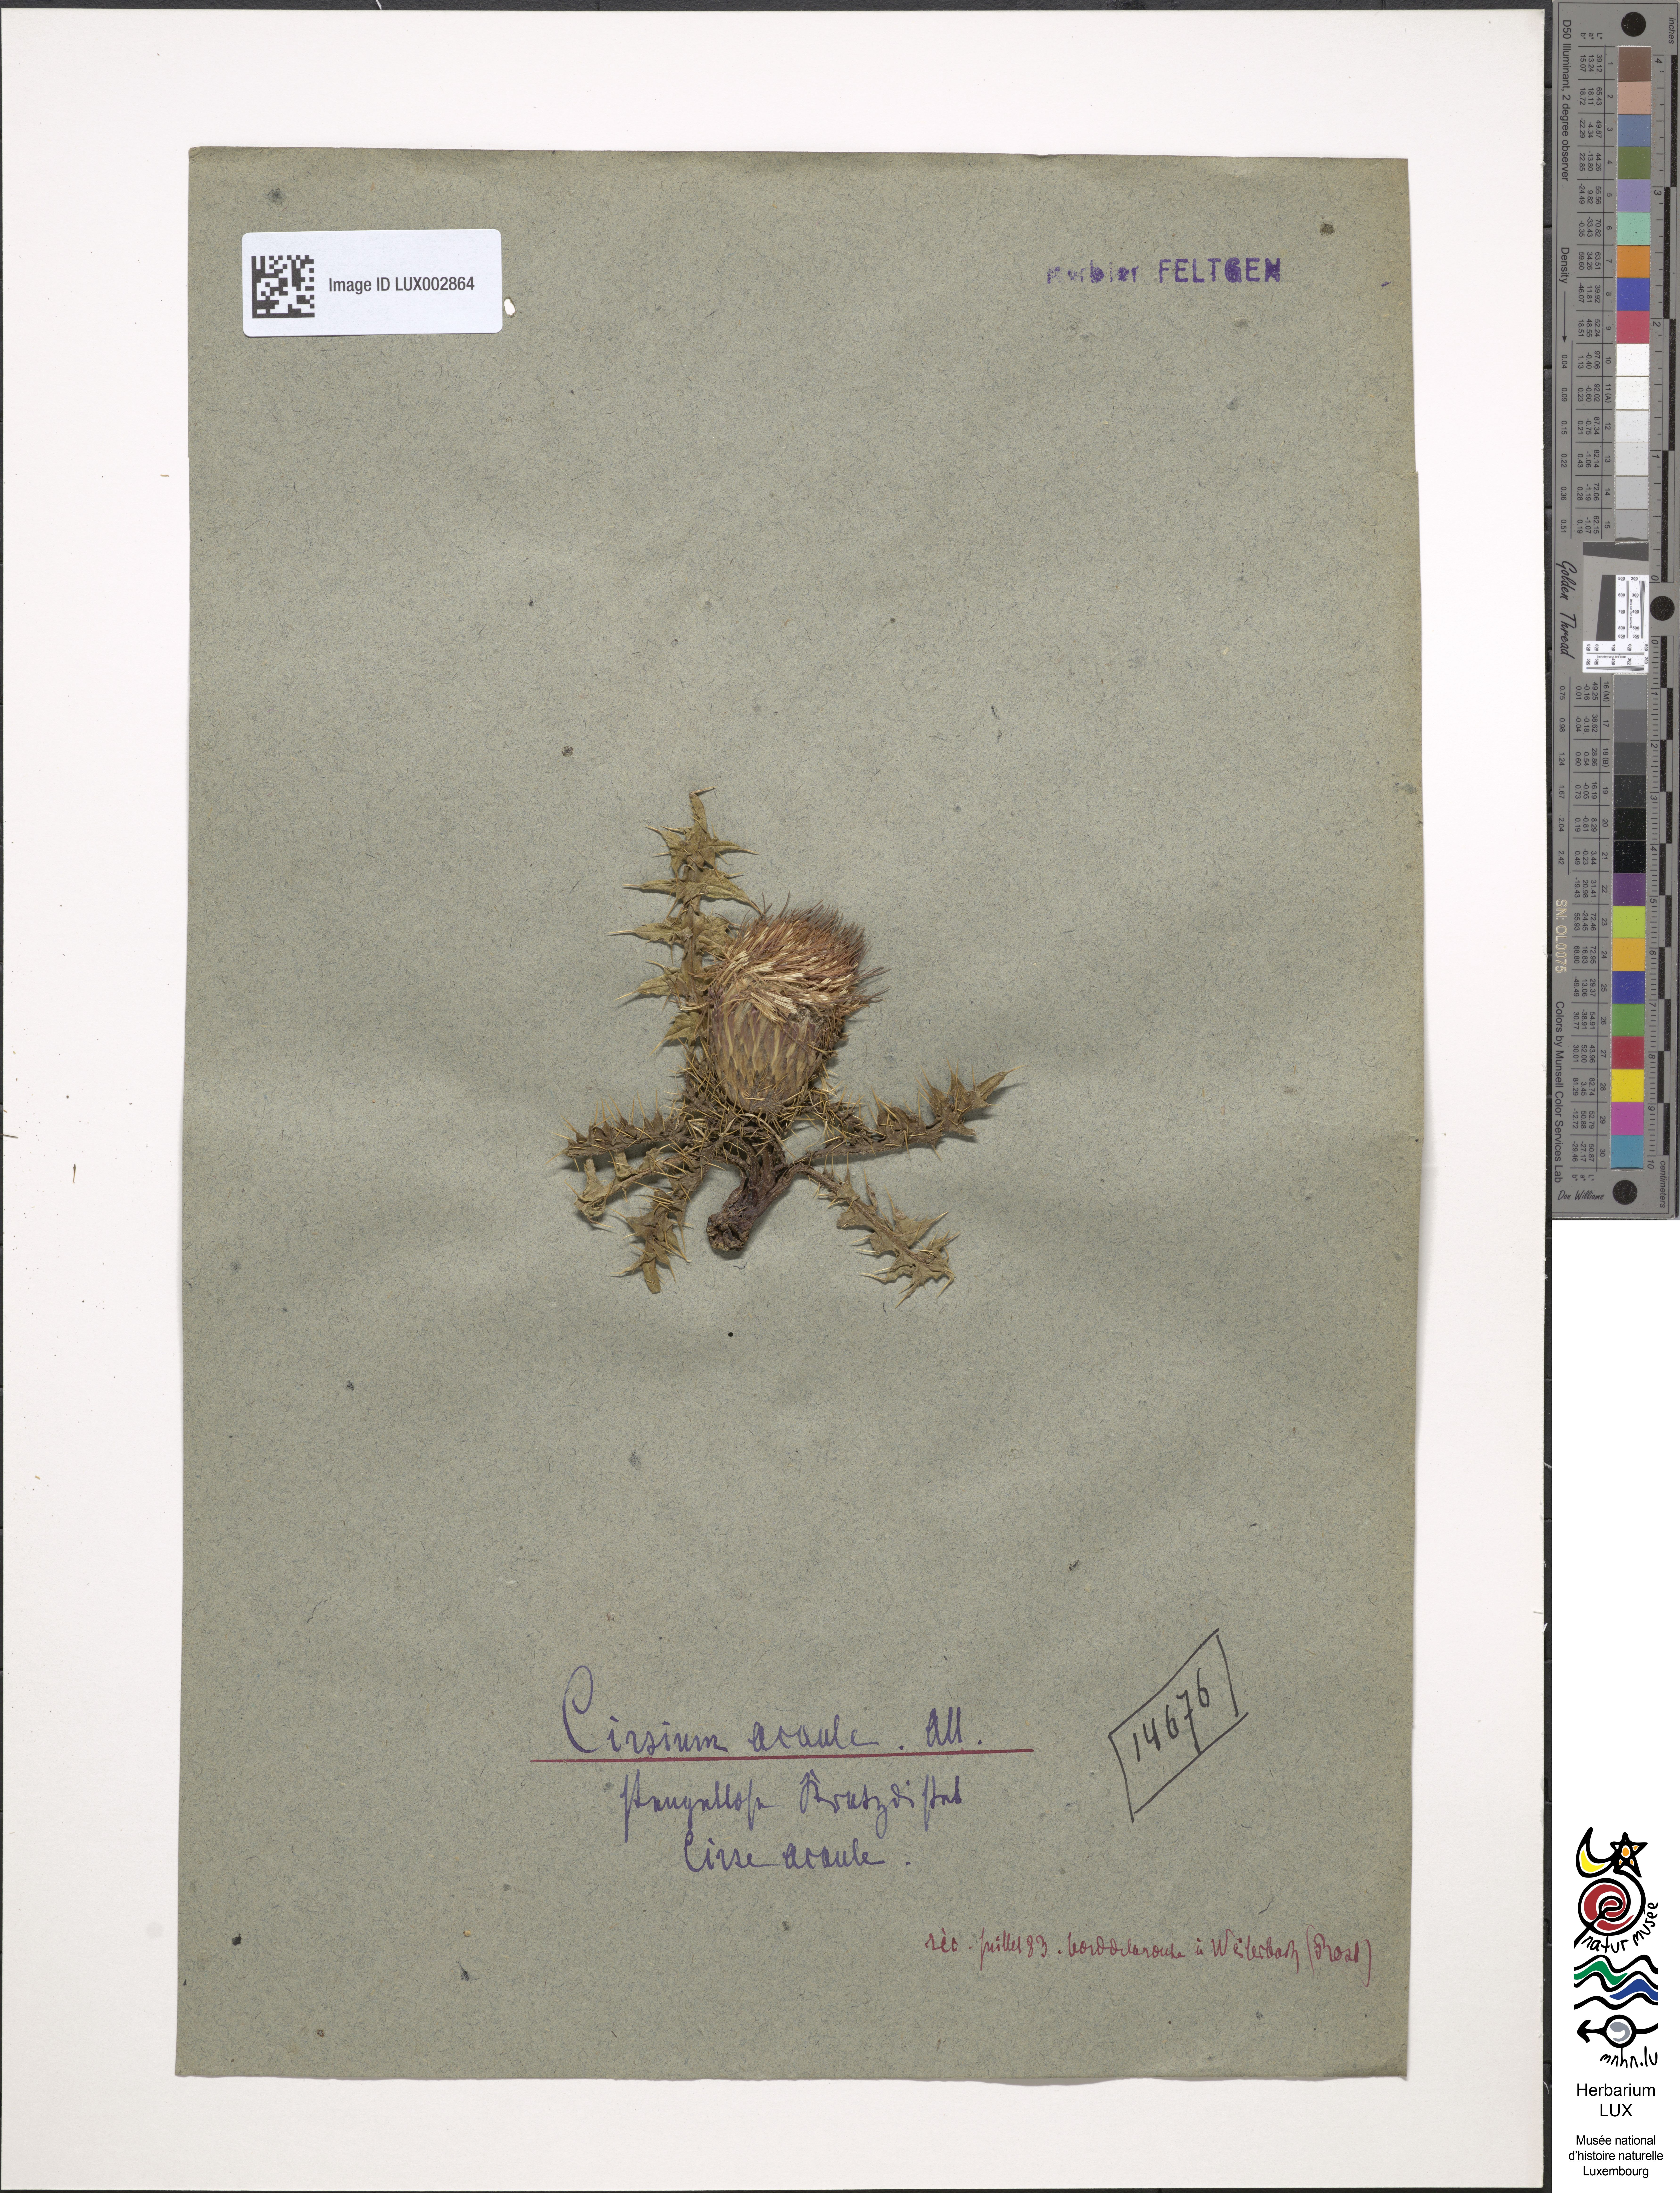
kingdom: Plantae
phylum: Tracheophyta
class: Magnoliopsida
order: Asterales
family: Asteraceae
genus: Cirsium
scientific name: Cirsium acaule
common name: Dwarf thistle
